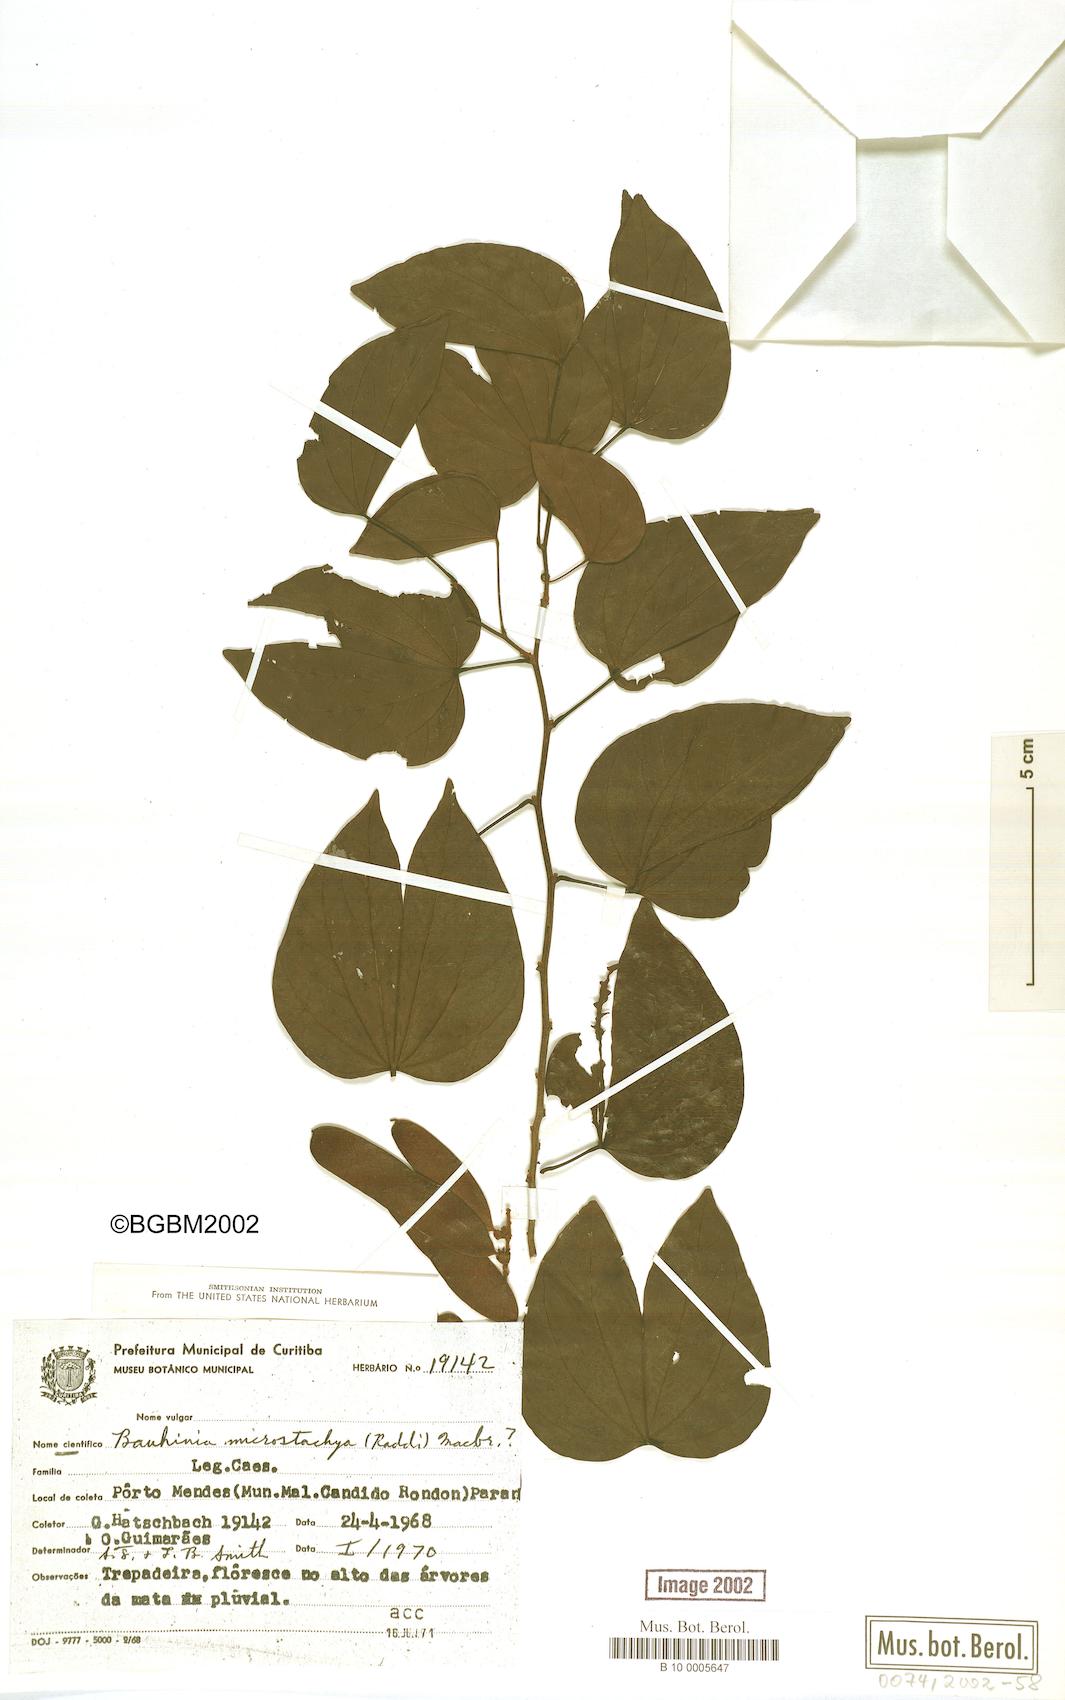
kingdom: Plantae
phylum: Tracheophyta
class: Magnoliopsida
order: Fabales
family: Fabaceae
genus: Schnella
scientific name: Schnella microstachya
